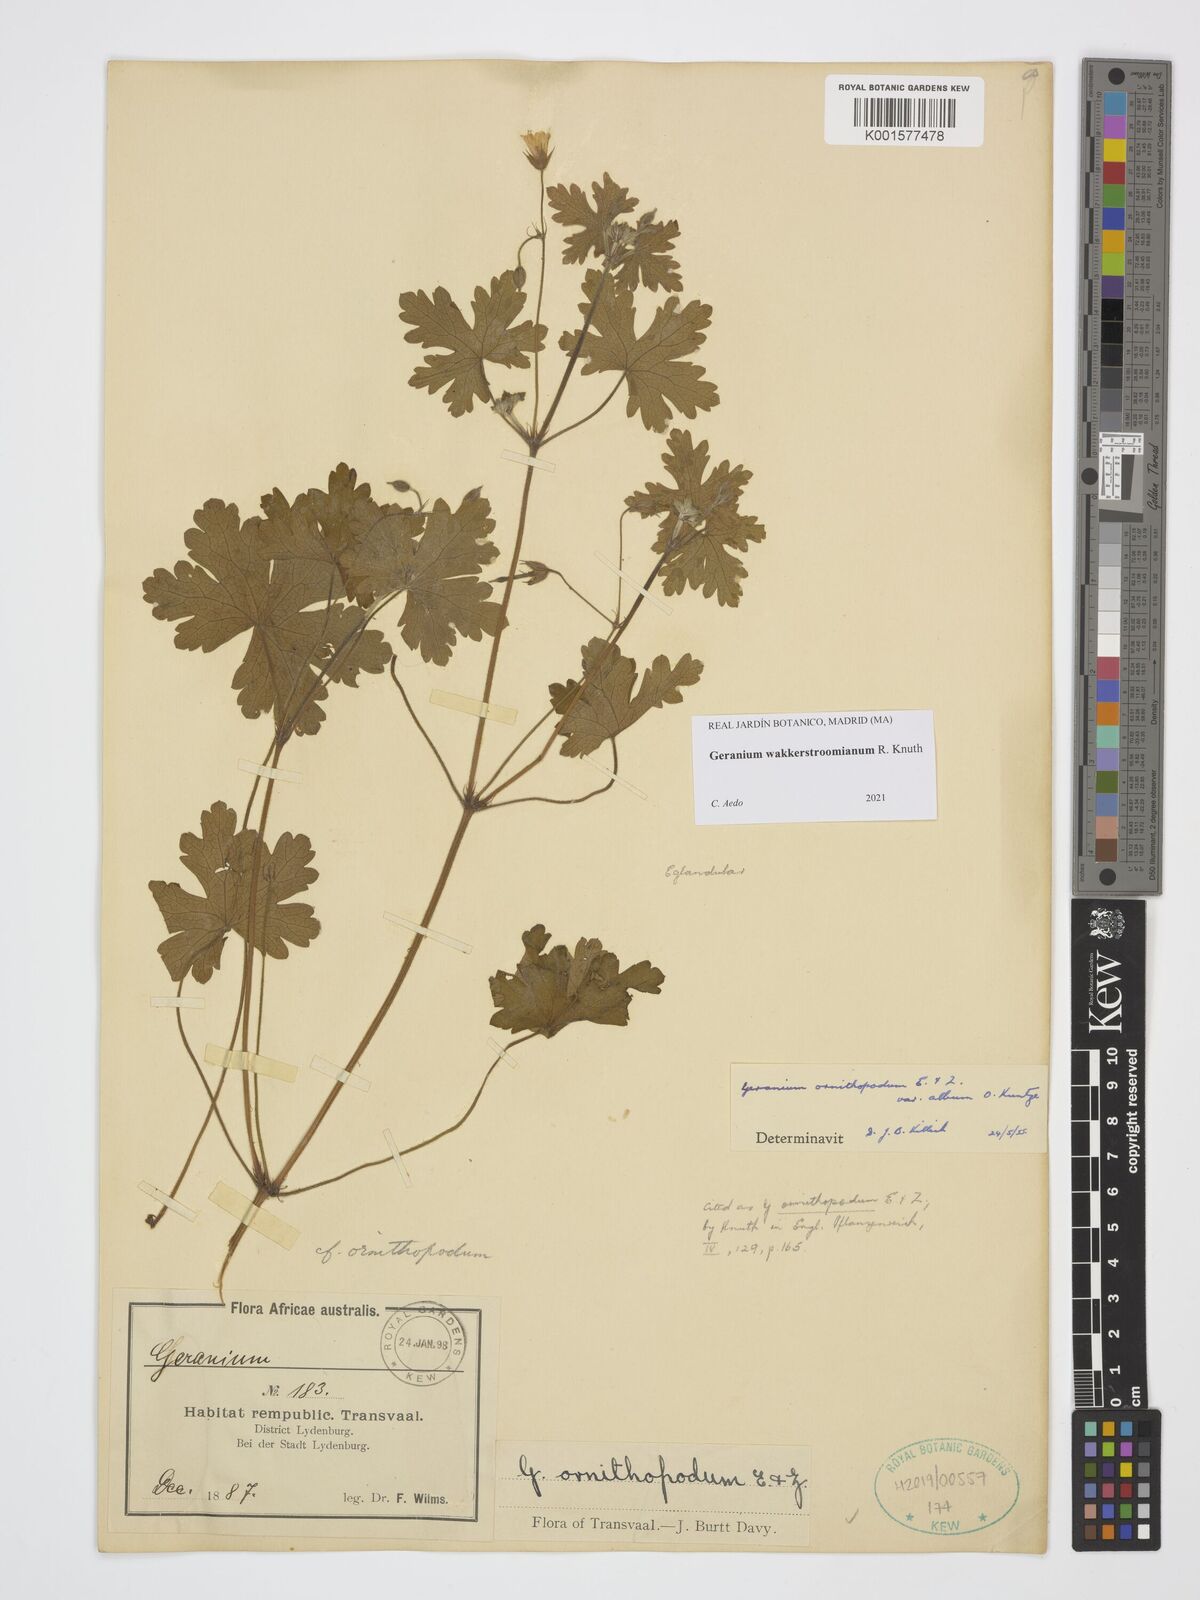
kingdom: Plantae
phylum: Tracheophyta
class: Magnoliopsida
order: Geraniales
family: Geraniaceae
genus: Geranium
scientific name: Geranium wakkerstroomianum
